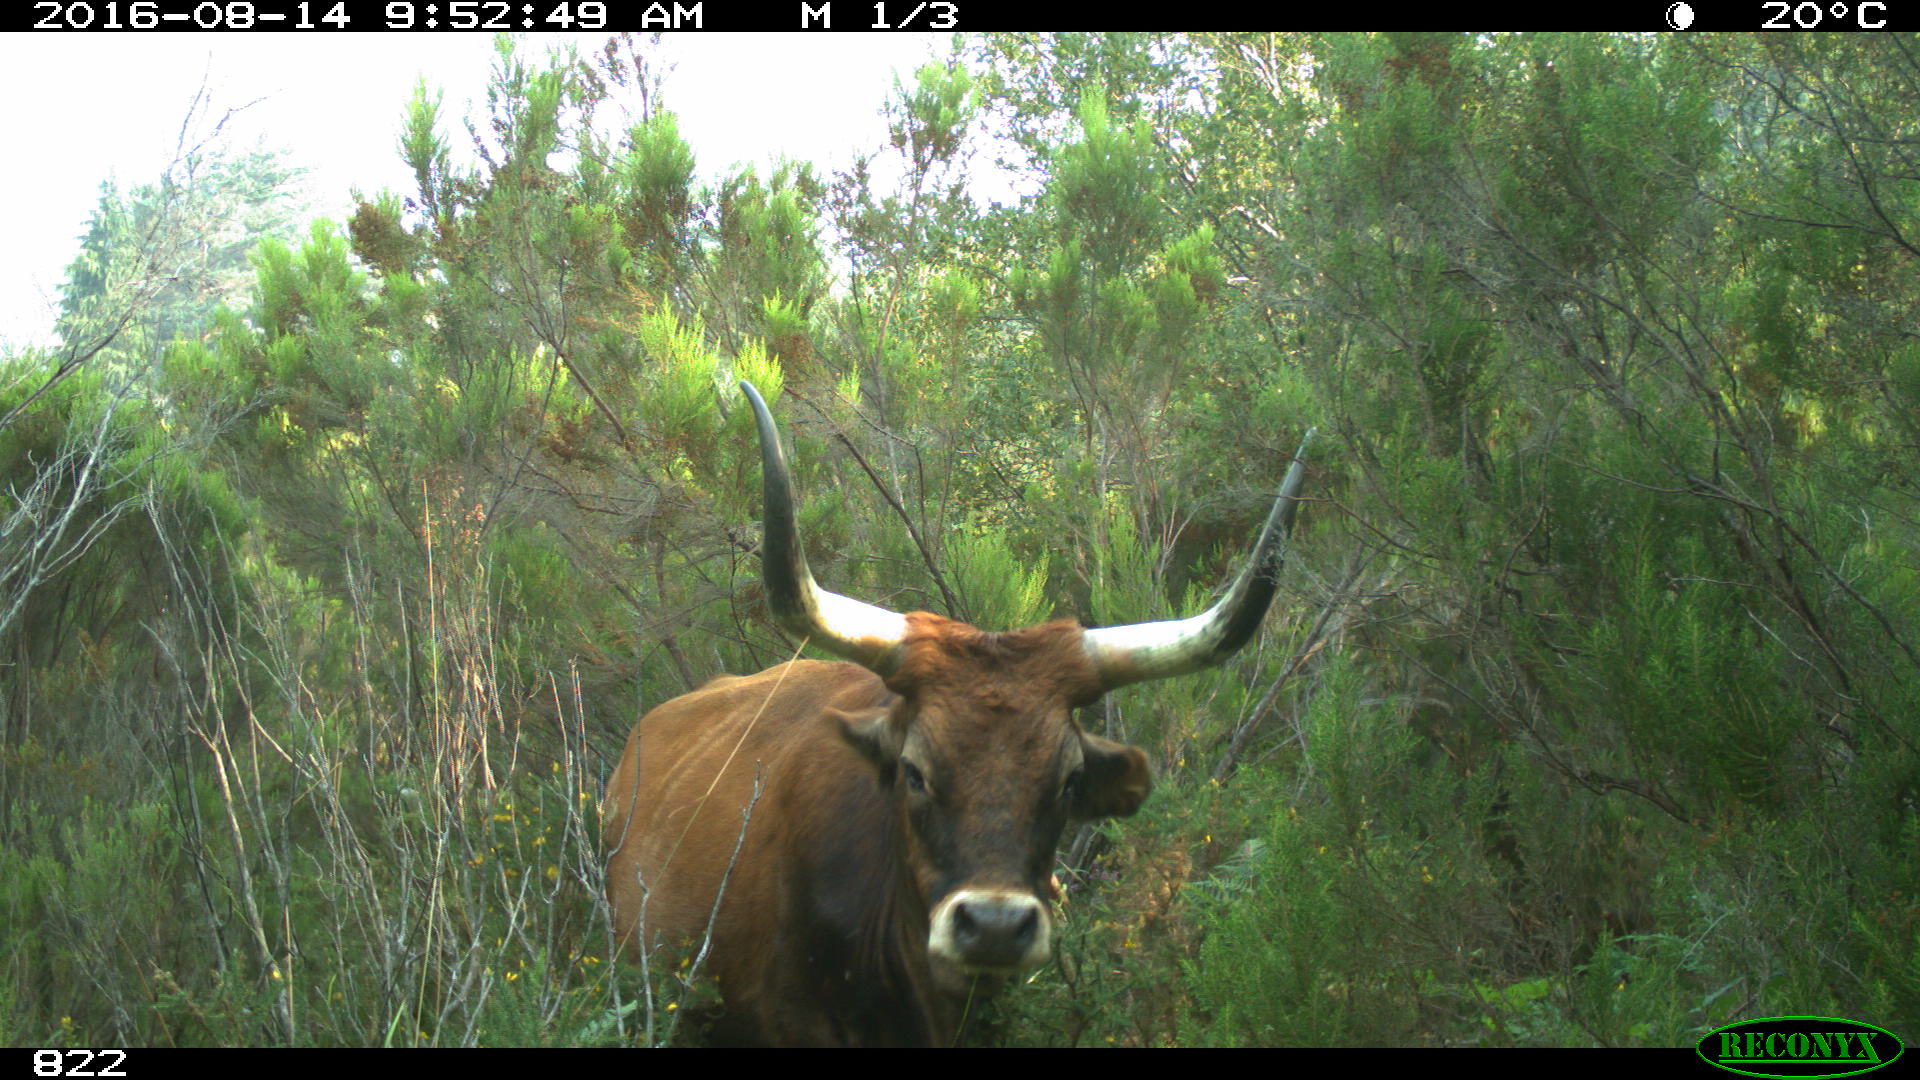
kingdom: Animalia
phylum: Chordata
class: Mammalia
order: Artiodactyla
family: Bovidae
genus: Bos
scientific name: Bos taurus
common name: Domesticated cattle
